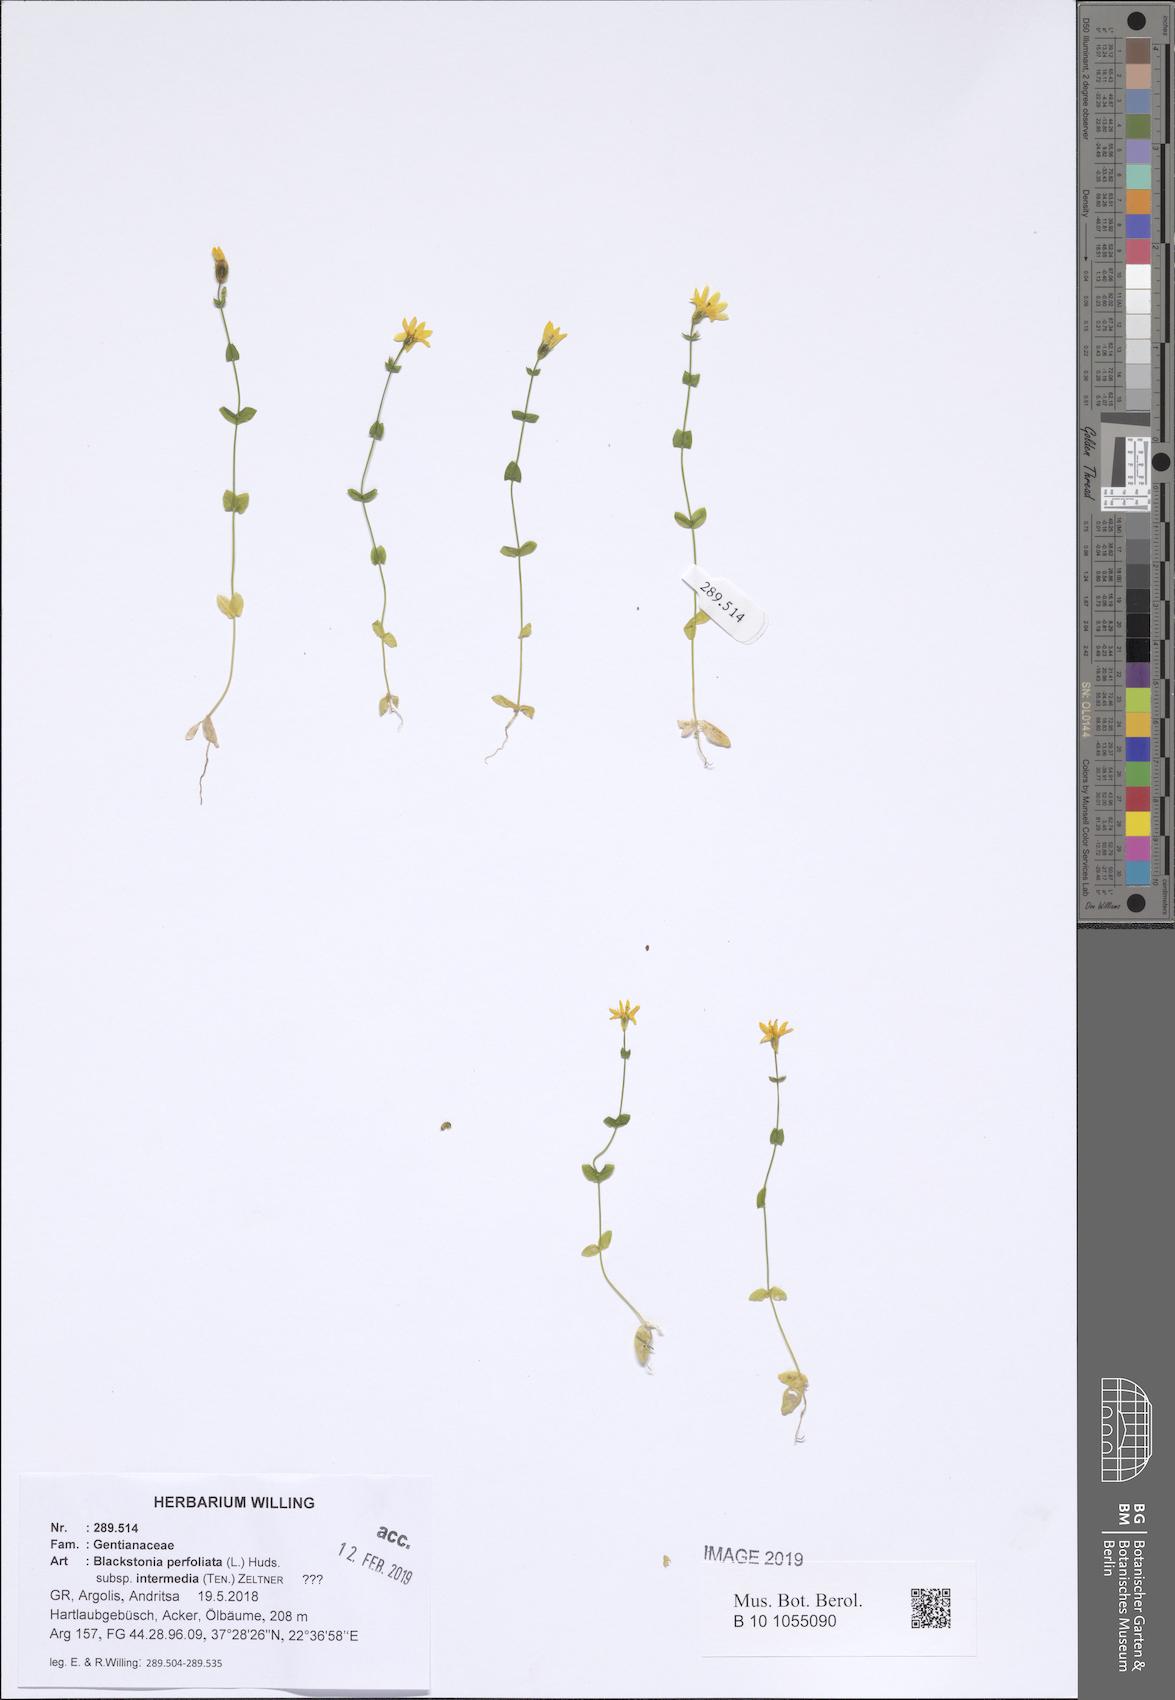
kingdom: Plantae
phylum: Tracheophyta
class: Magnoliopsida
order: Gentianales
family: Gentianaceae
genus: Blackstonia
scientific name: Blackstonia perfoliata
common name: Yellow-wort
